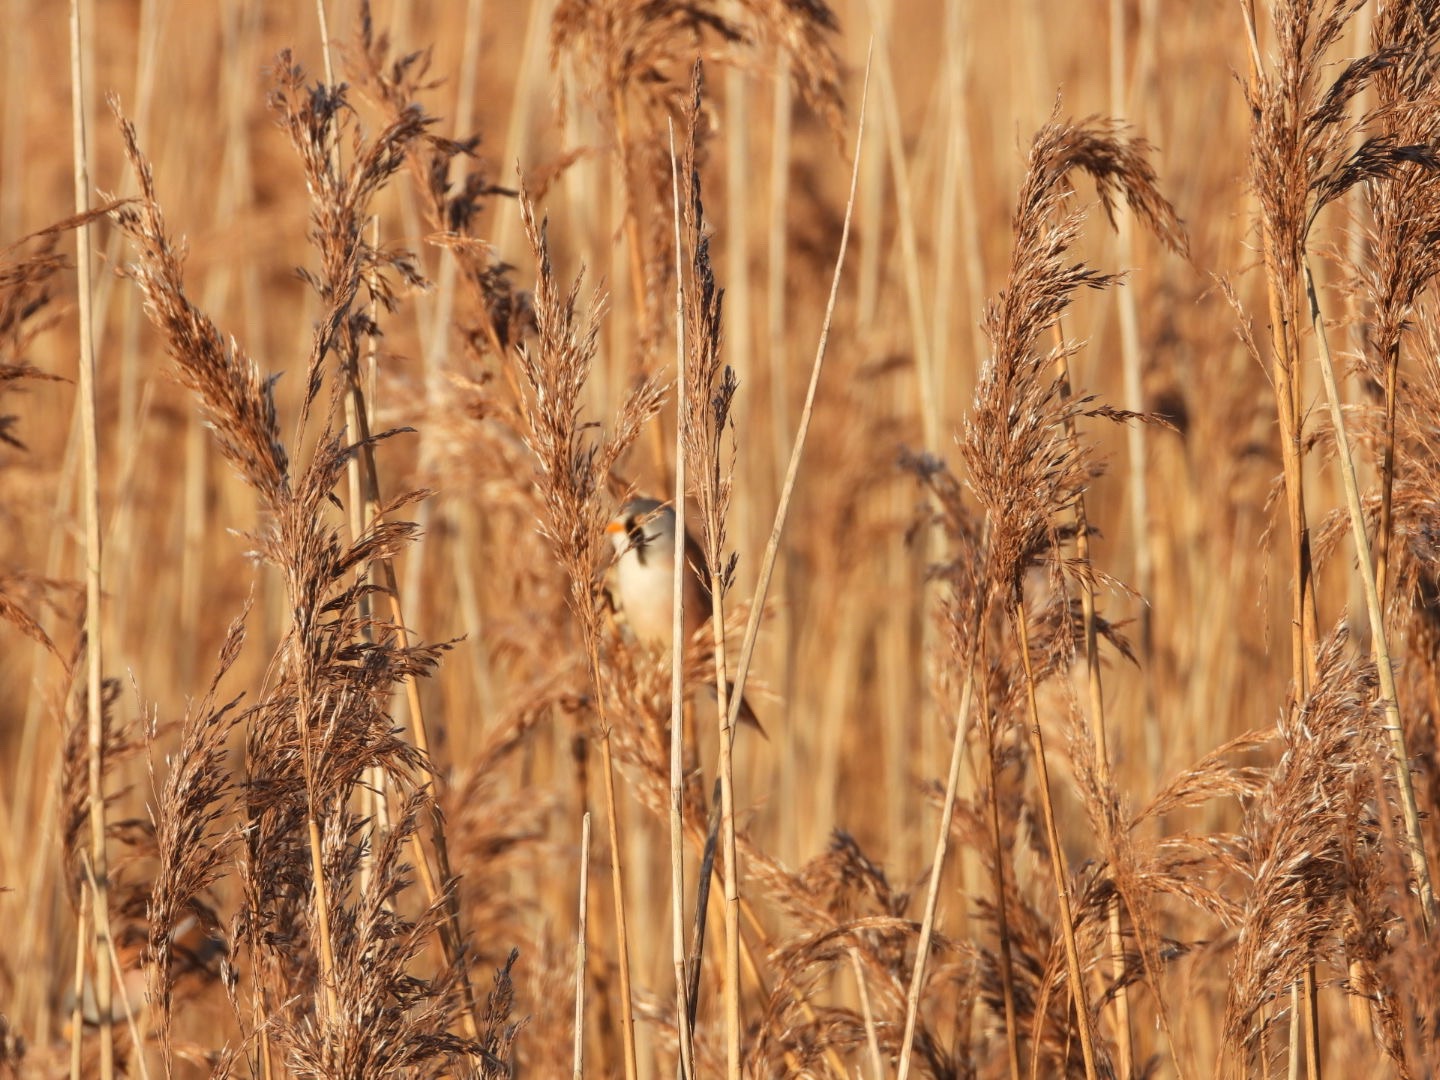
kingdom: Animalia
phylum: Chordata
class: Aves
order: Passeriformes
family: Panuridae
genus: Panurus
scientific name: Panurus biarmicus
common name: Skægmejse
